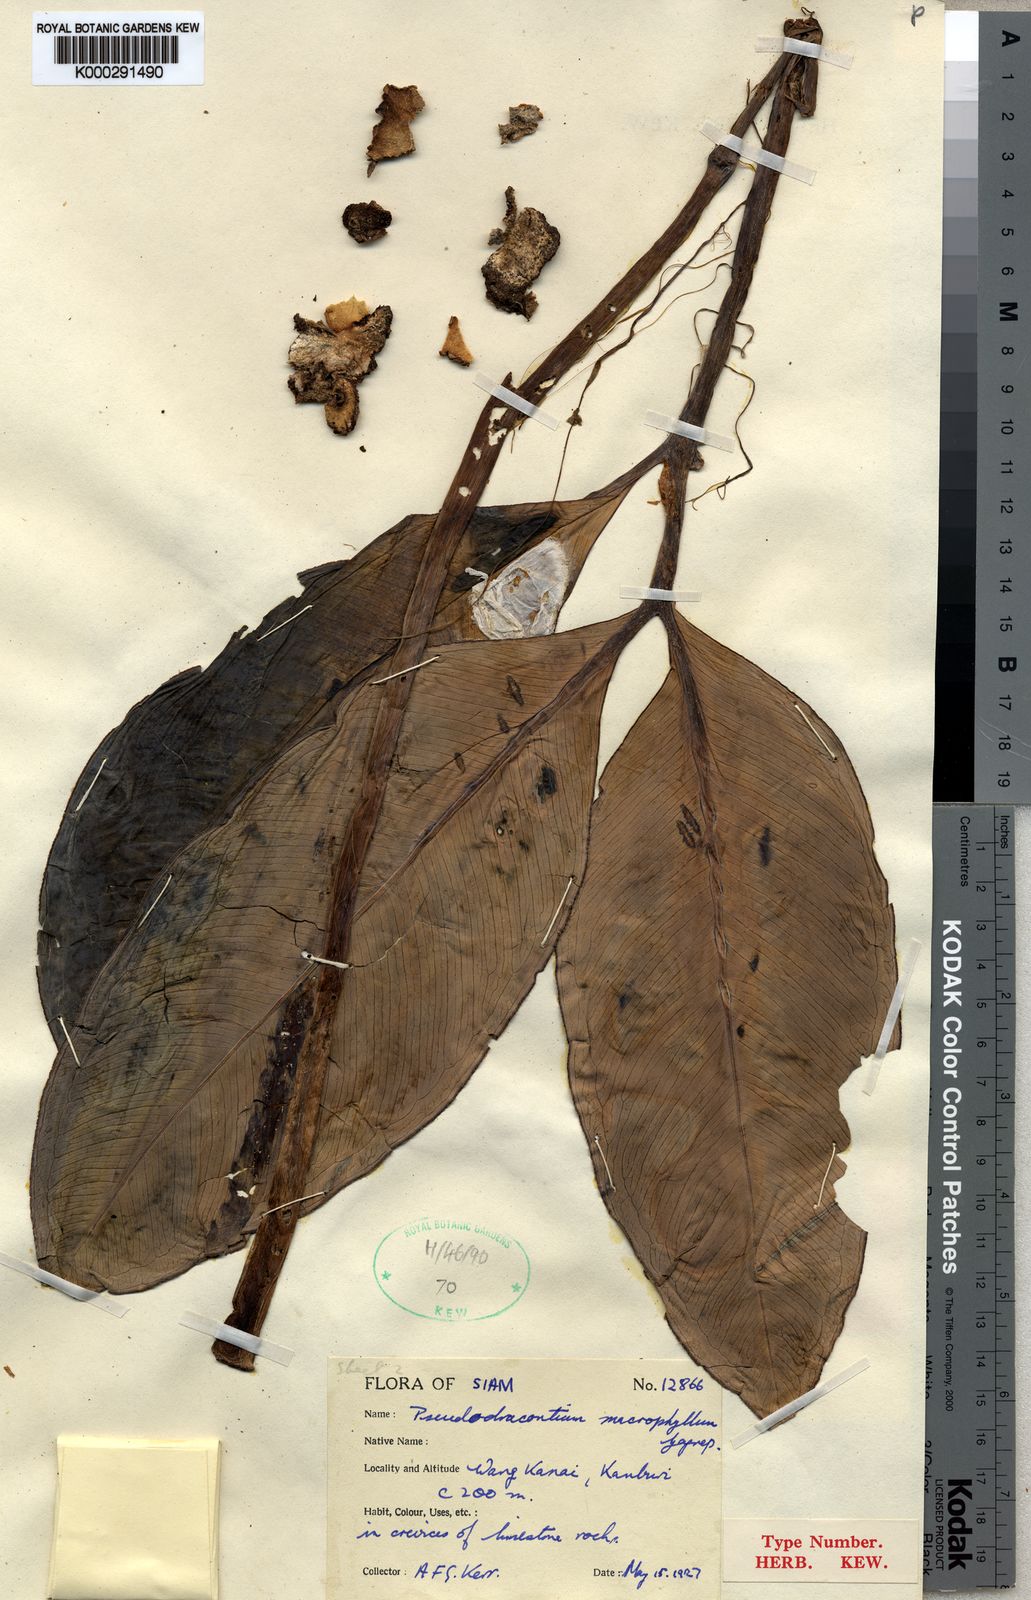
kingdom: Plantae
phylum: Tracheophyta
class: Liliopsida
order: Alismatales
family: Araceae
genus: Amorphophallus
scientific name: Amorphophallus macrophyllus
